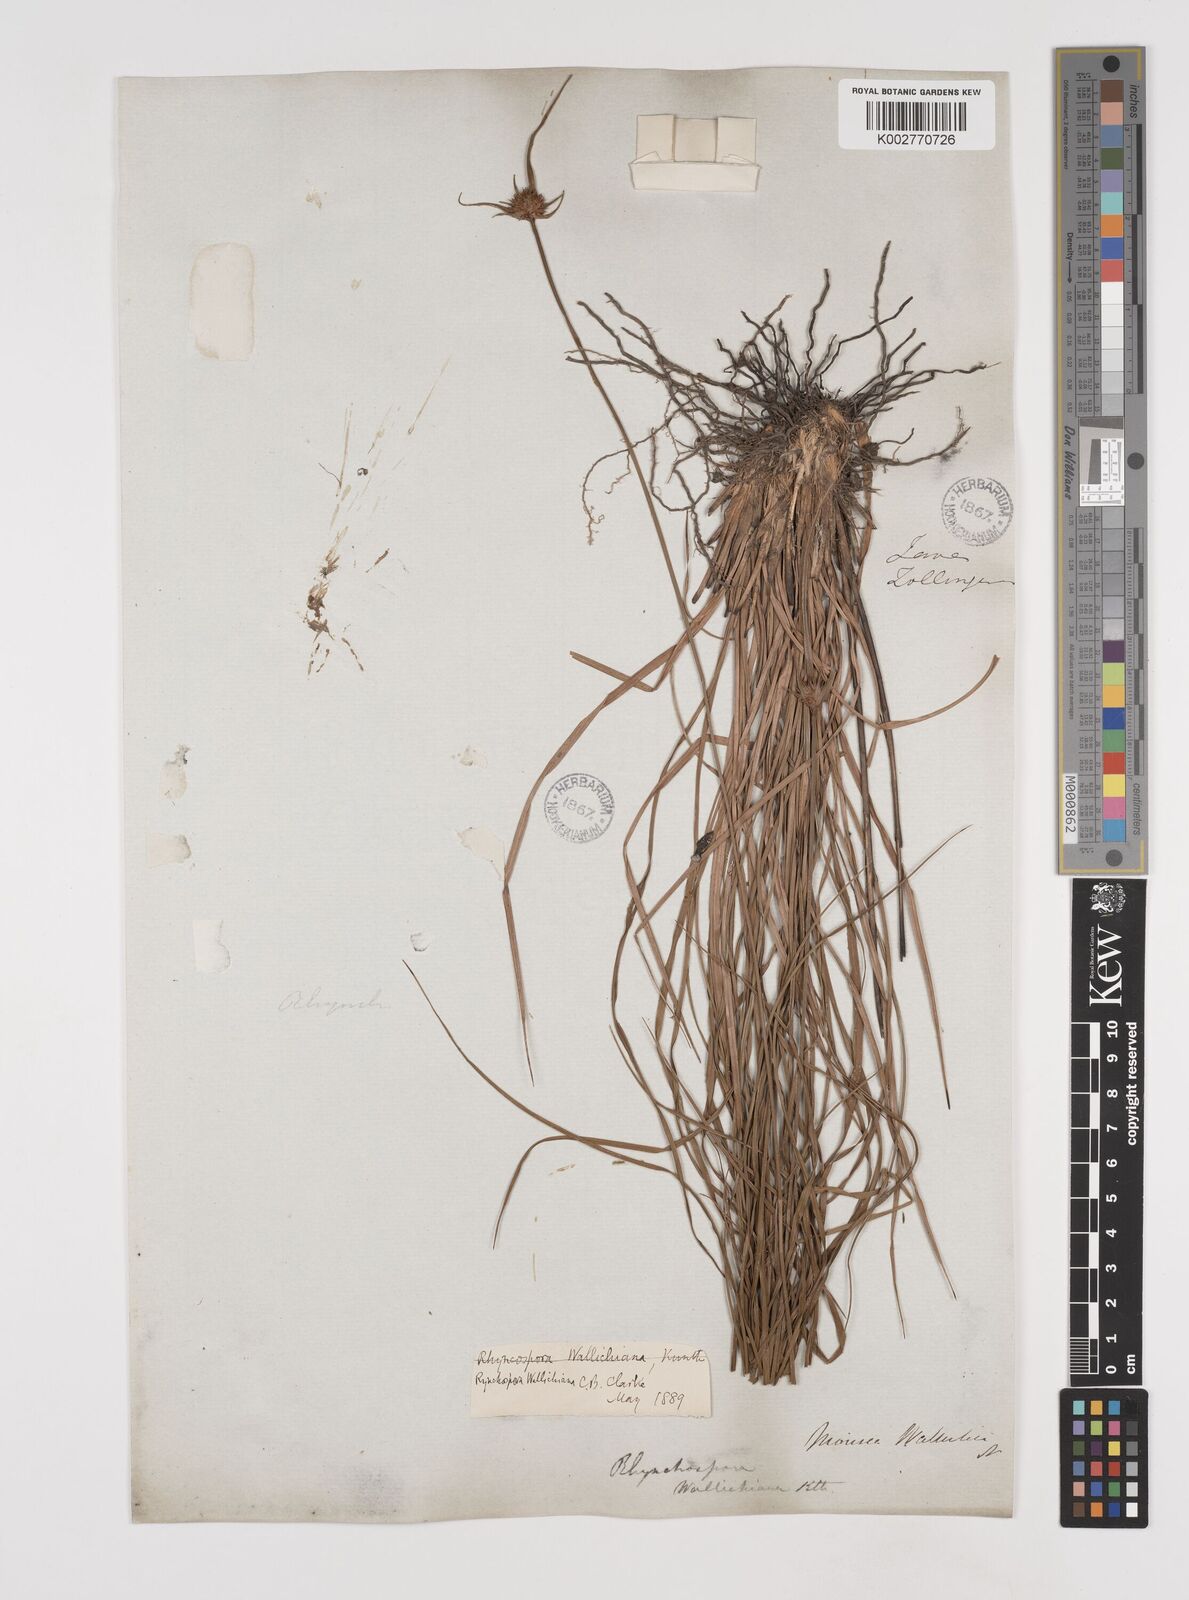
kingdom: Plantae
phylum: Tracheophyta
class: Liliopsida
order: Poales
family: Cyperaceae
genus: Rhynchospora
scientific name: Rhynchospora rubra
